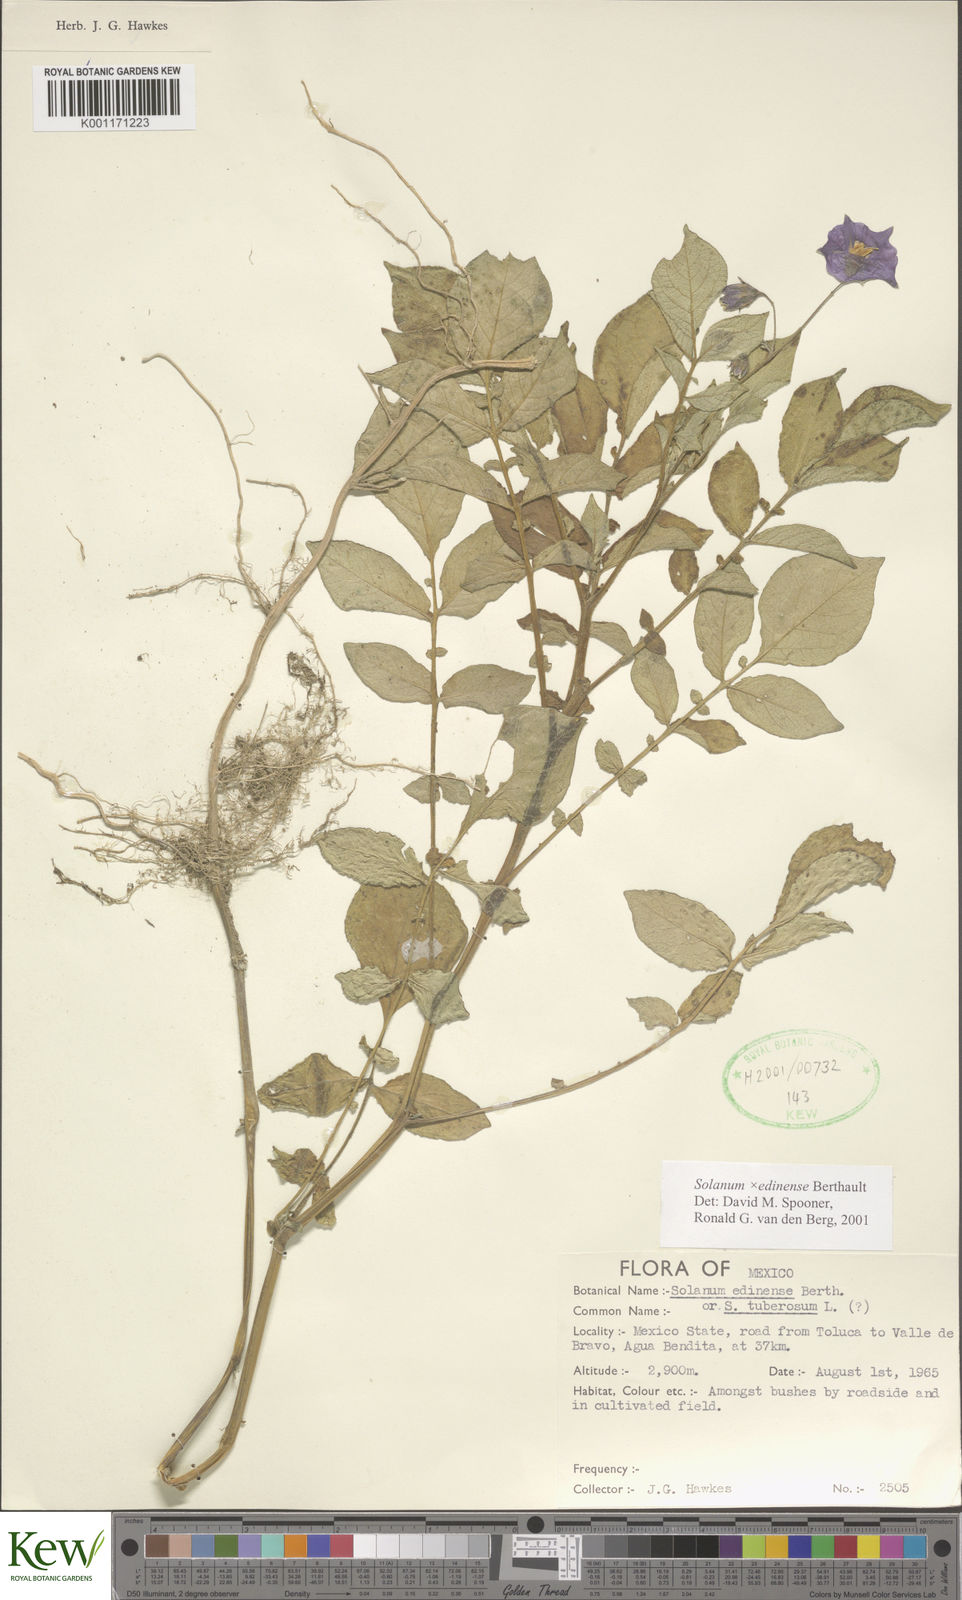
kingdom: Plantae
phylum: Tracheophyta
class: Magnoliopsida
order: Solanales
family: Solanaceae
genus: Solanum
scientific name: Solanum edinense
